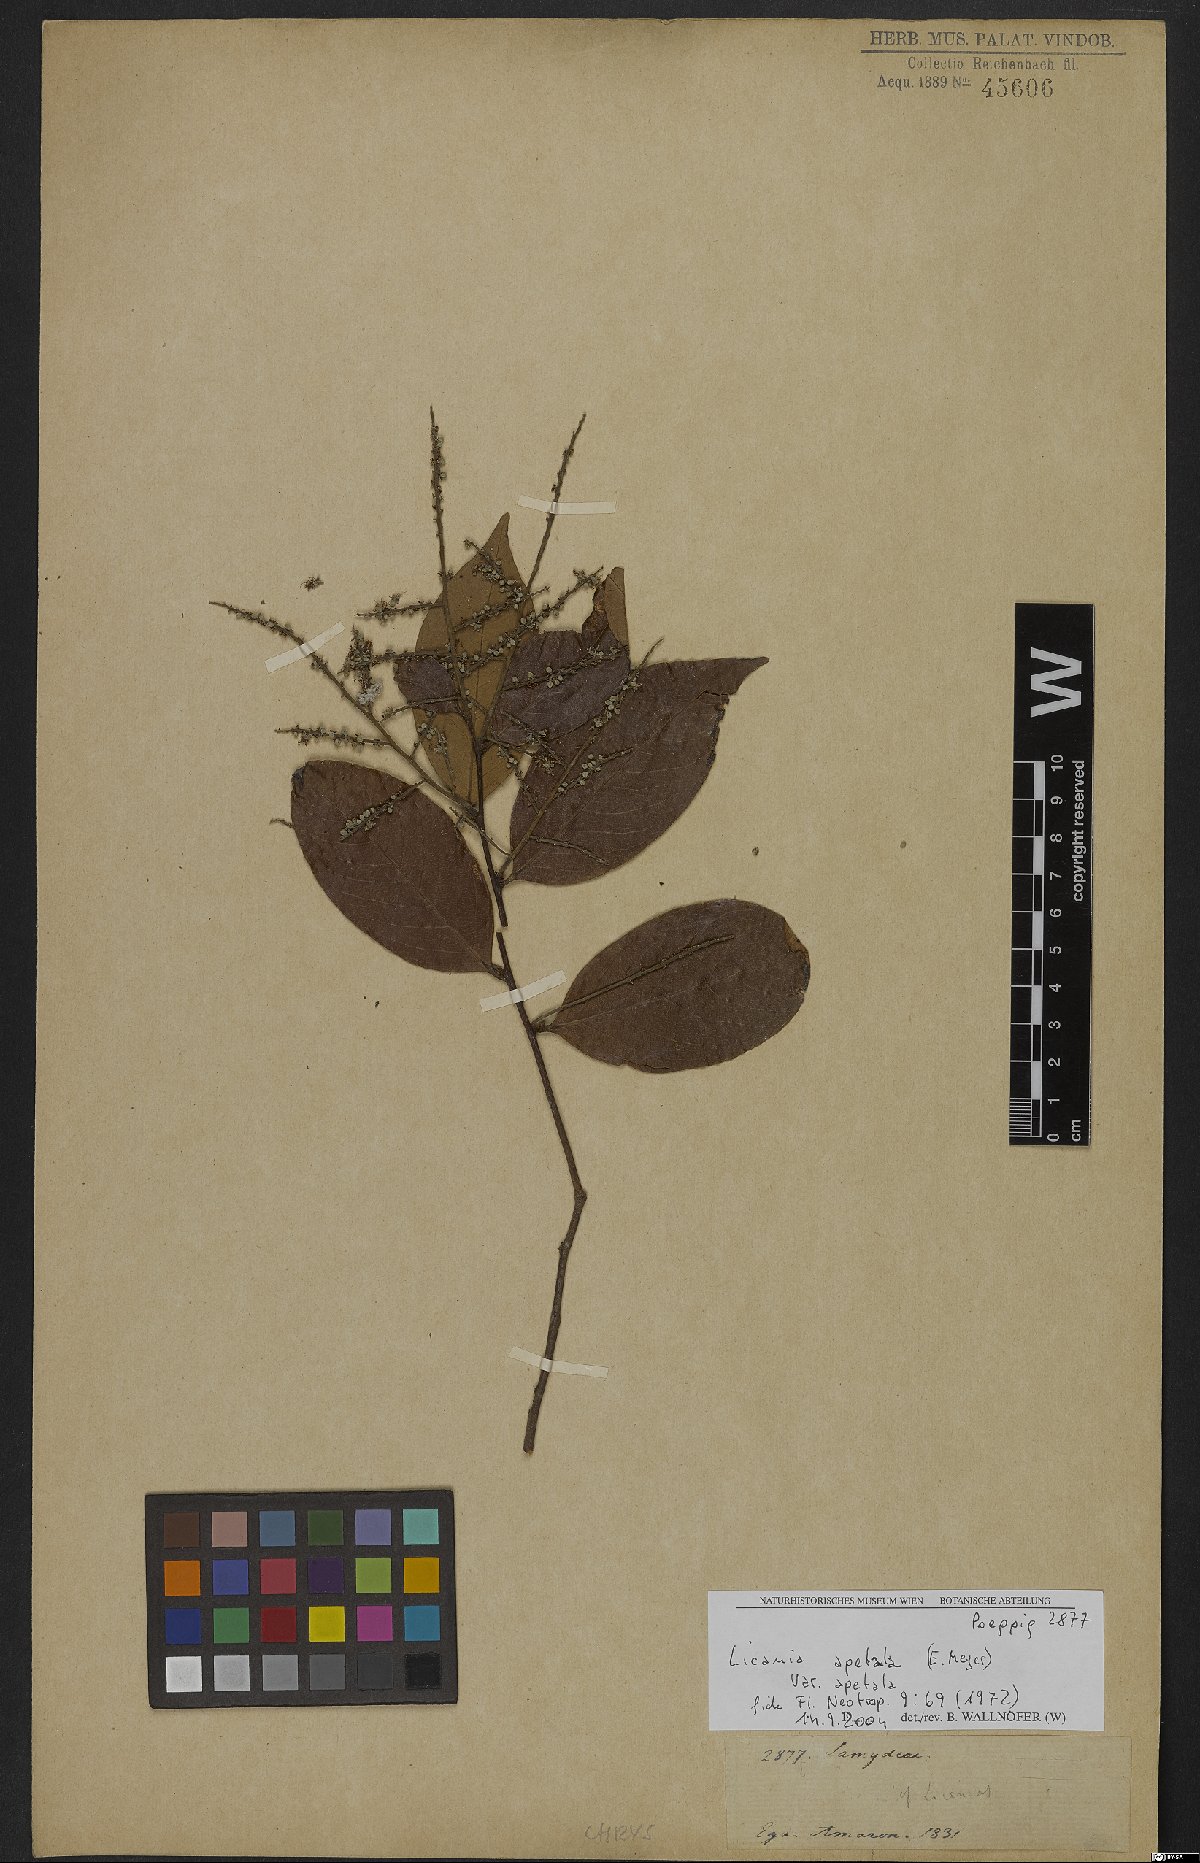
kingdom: Plantae
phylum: Tracheophyta
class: Magnoliopsida
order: Malpighiales
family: Chrysobalanaceae
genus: Leptobalanus
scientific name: Leptobalanus apetalus
